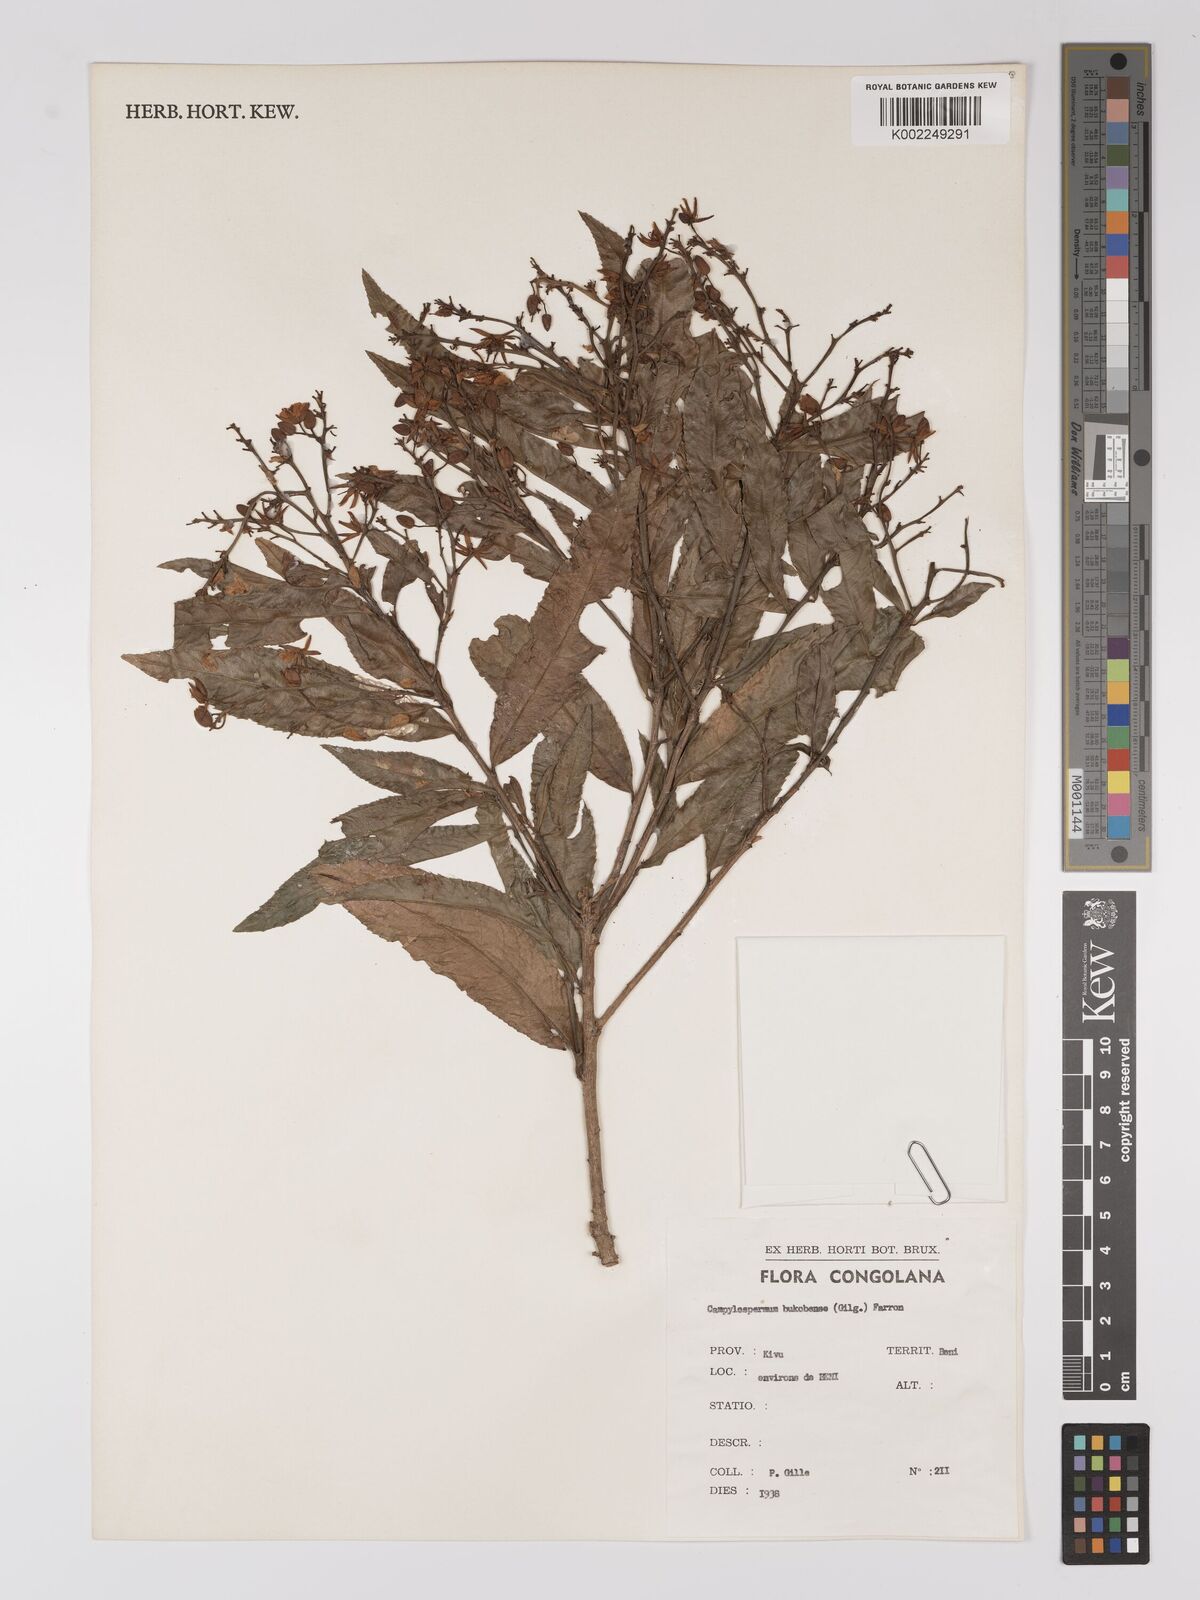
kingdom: Plantae
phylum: Tracheophyta
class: Magnoliopsida
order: Malpighiales
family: Ochnaceae
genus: Campylospermum
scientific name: Campylospermum likimiense
